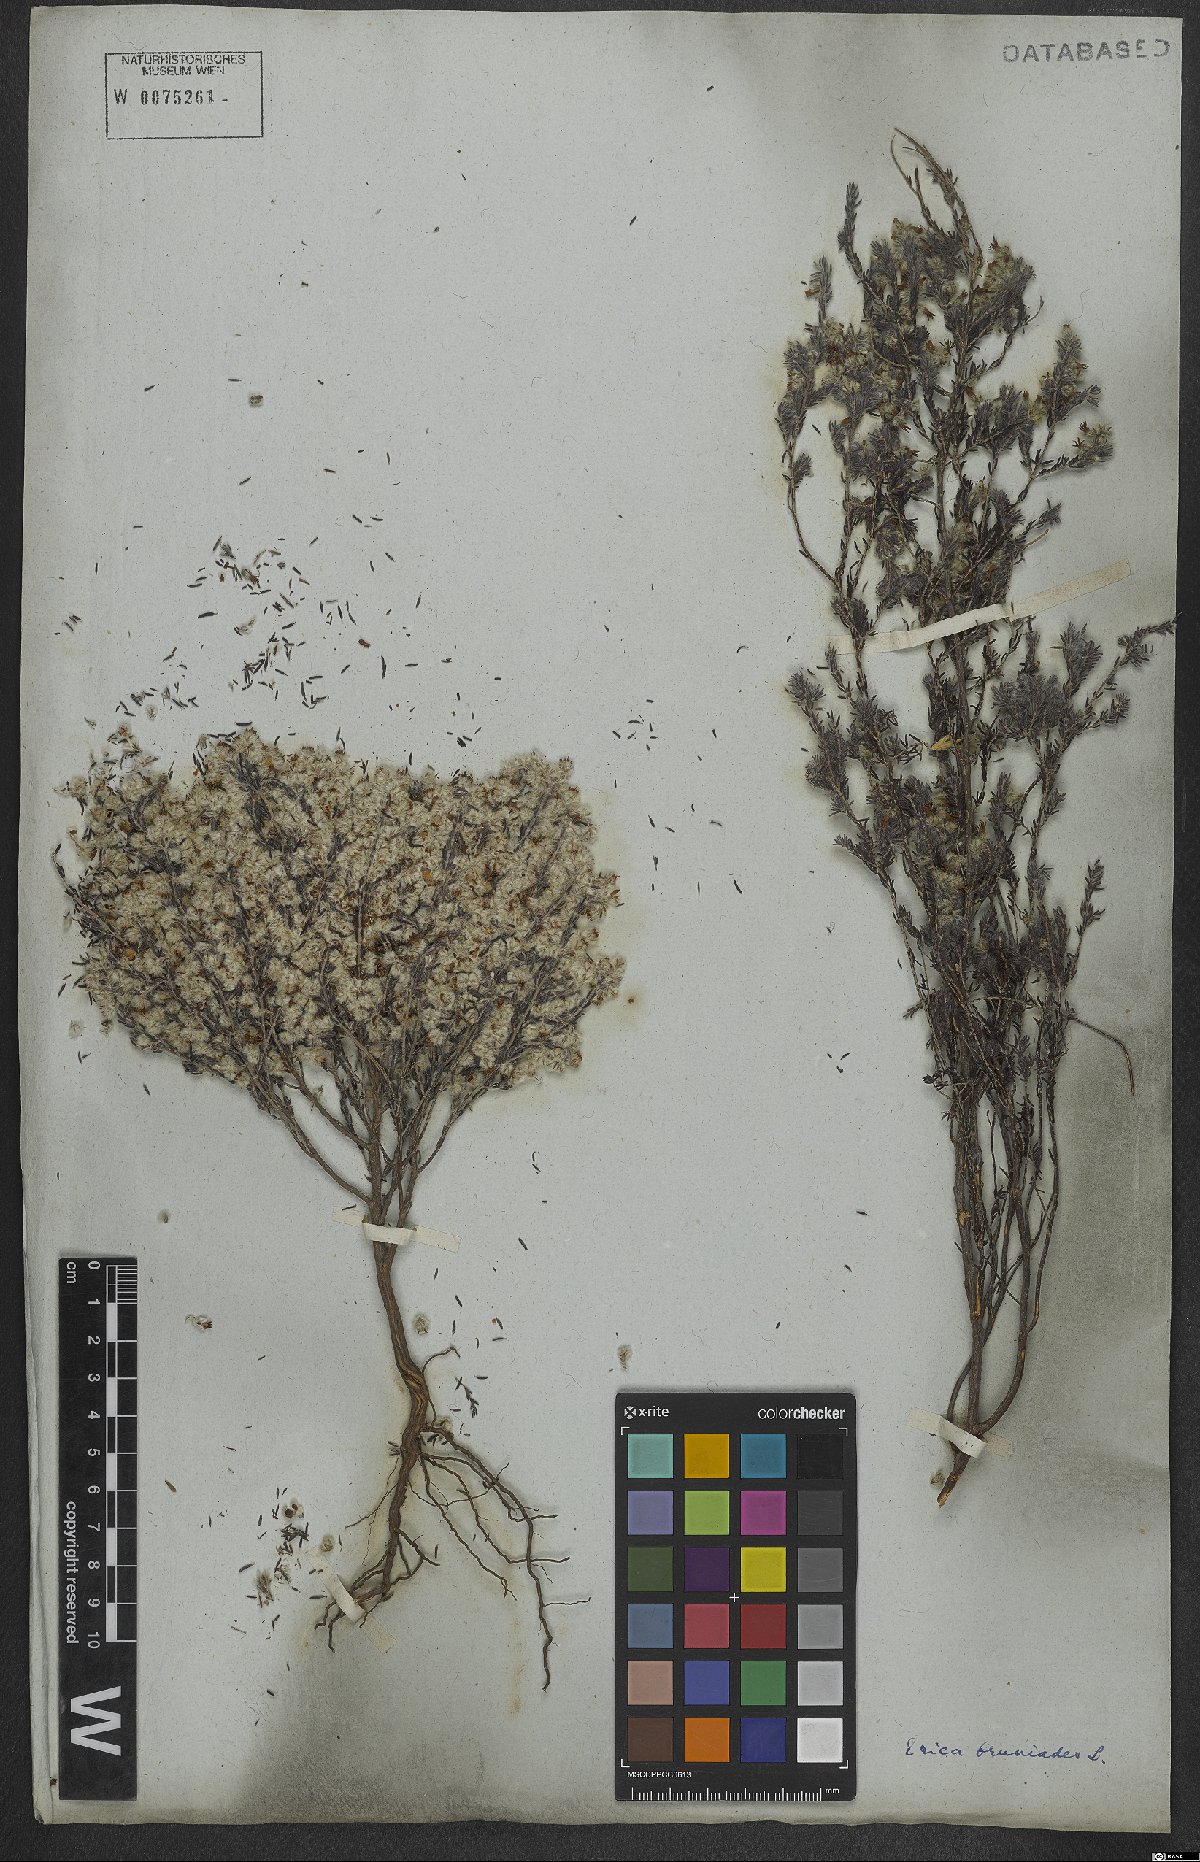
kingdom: Plantae
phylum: Tracheophyta
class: Magnoliopsida
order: Ericales
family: Ericaceae
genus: Erica
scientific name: Erica bruniades
